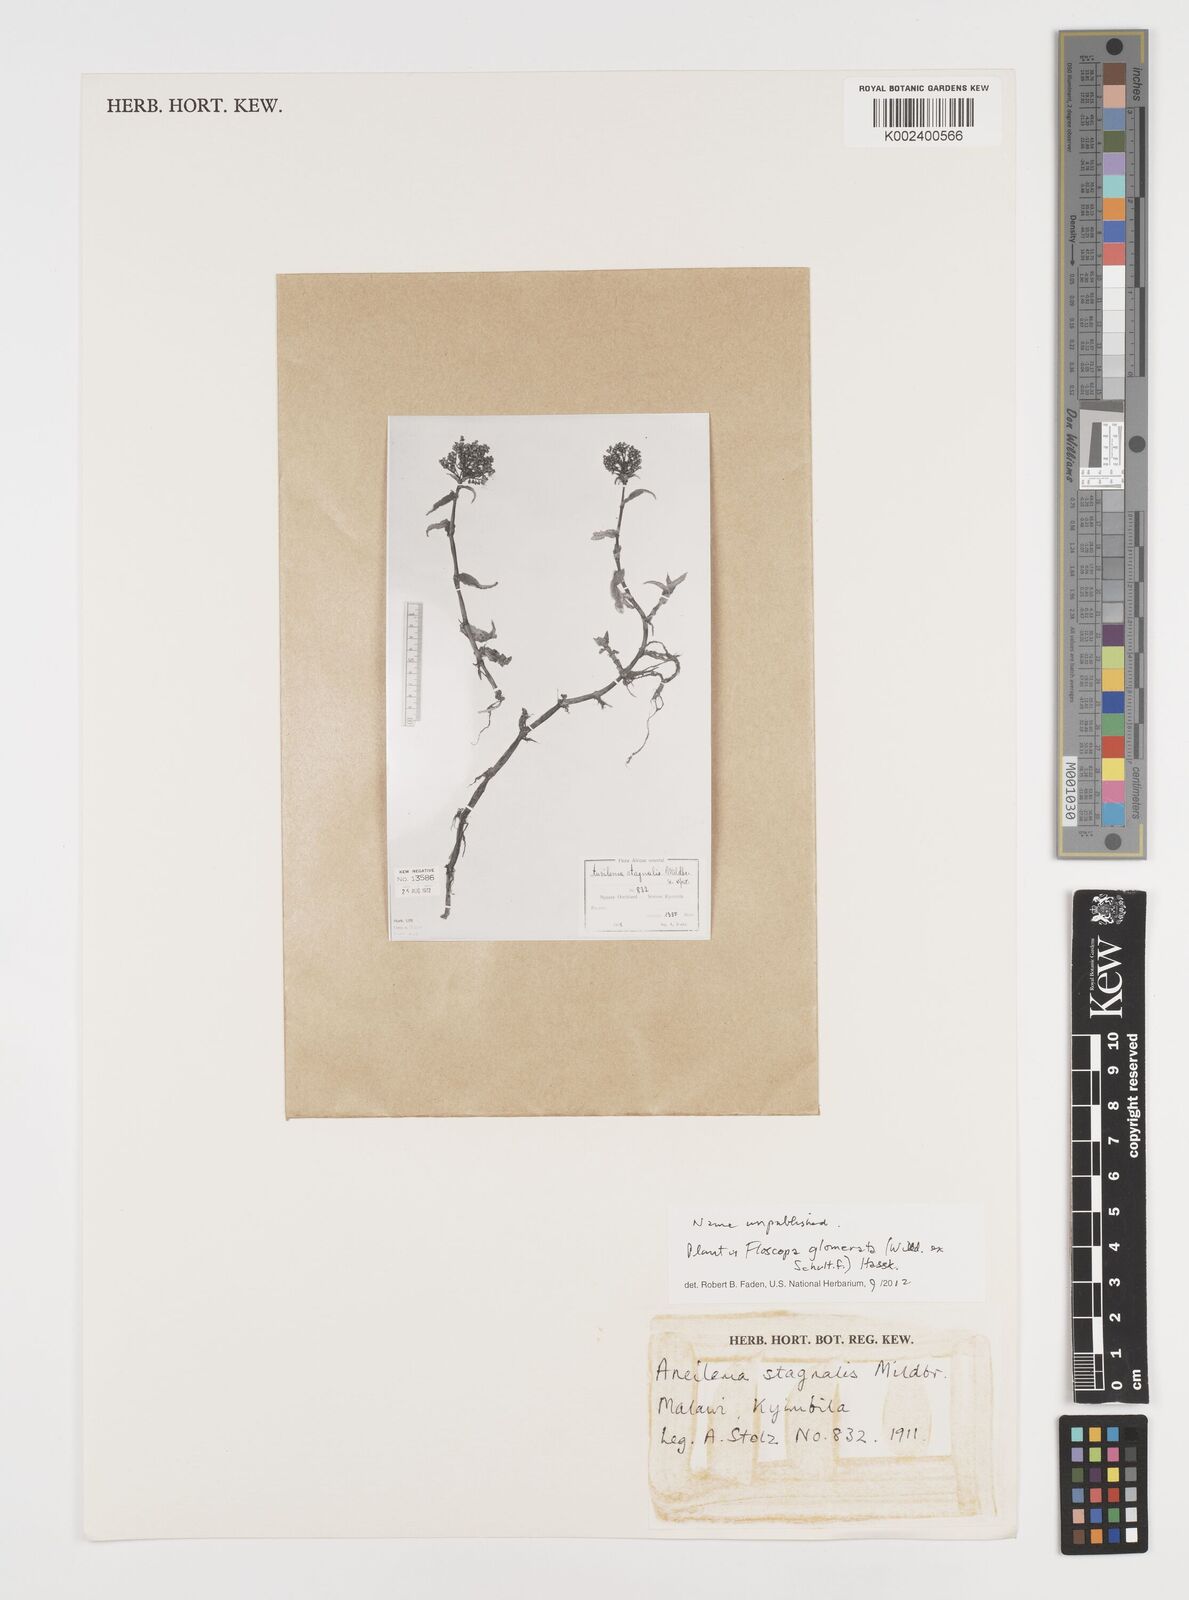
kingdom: Plantae
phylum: Tracheophyta
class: Liliopsida
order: Commelinales
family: Commelinaceae
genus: Floscopa
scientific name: Floscopa glomerata
